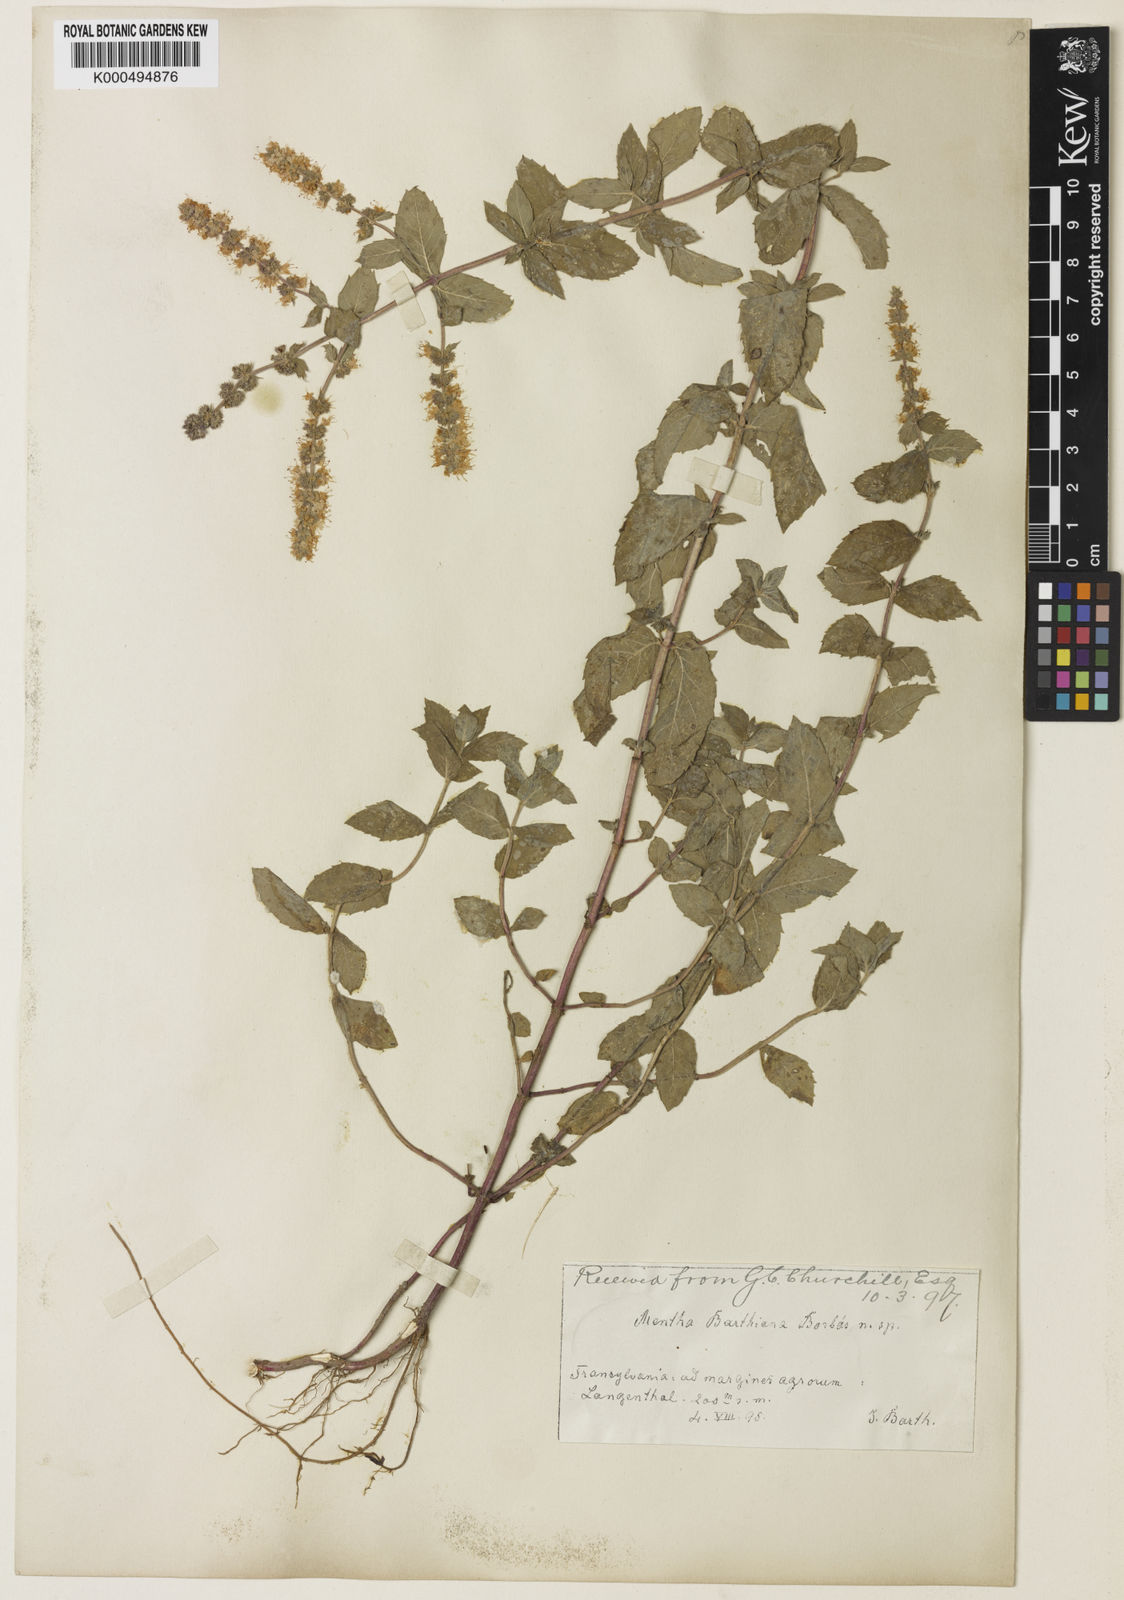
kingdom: Plantae
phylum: Tracheophyta
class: Magnoliopsida
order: Lamiales
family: Lamiaceae
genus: Mentha
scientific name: Mentha rotundifolia
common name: Bigleaf mint
